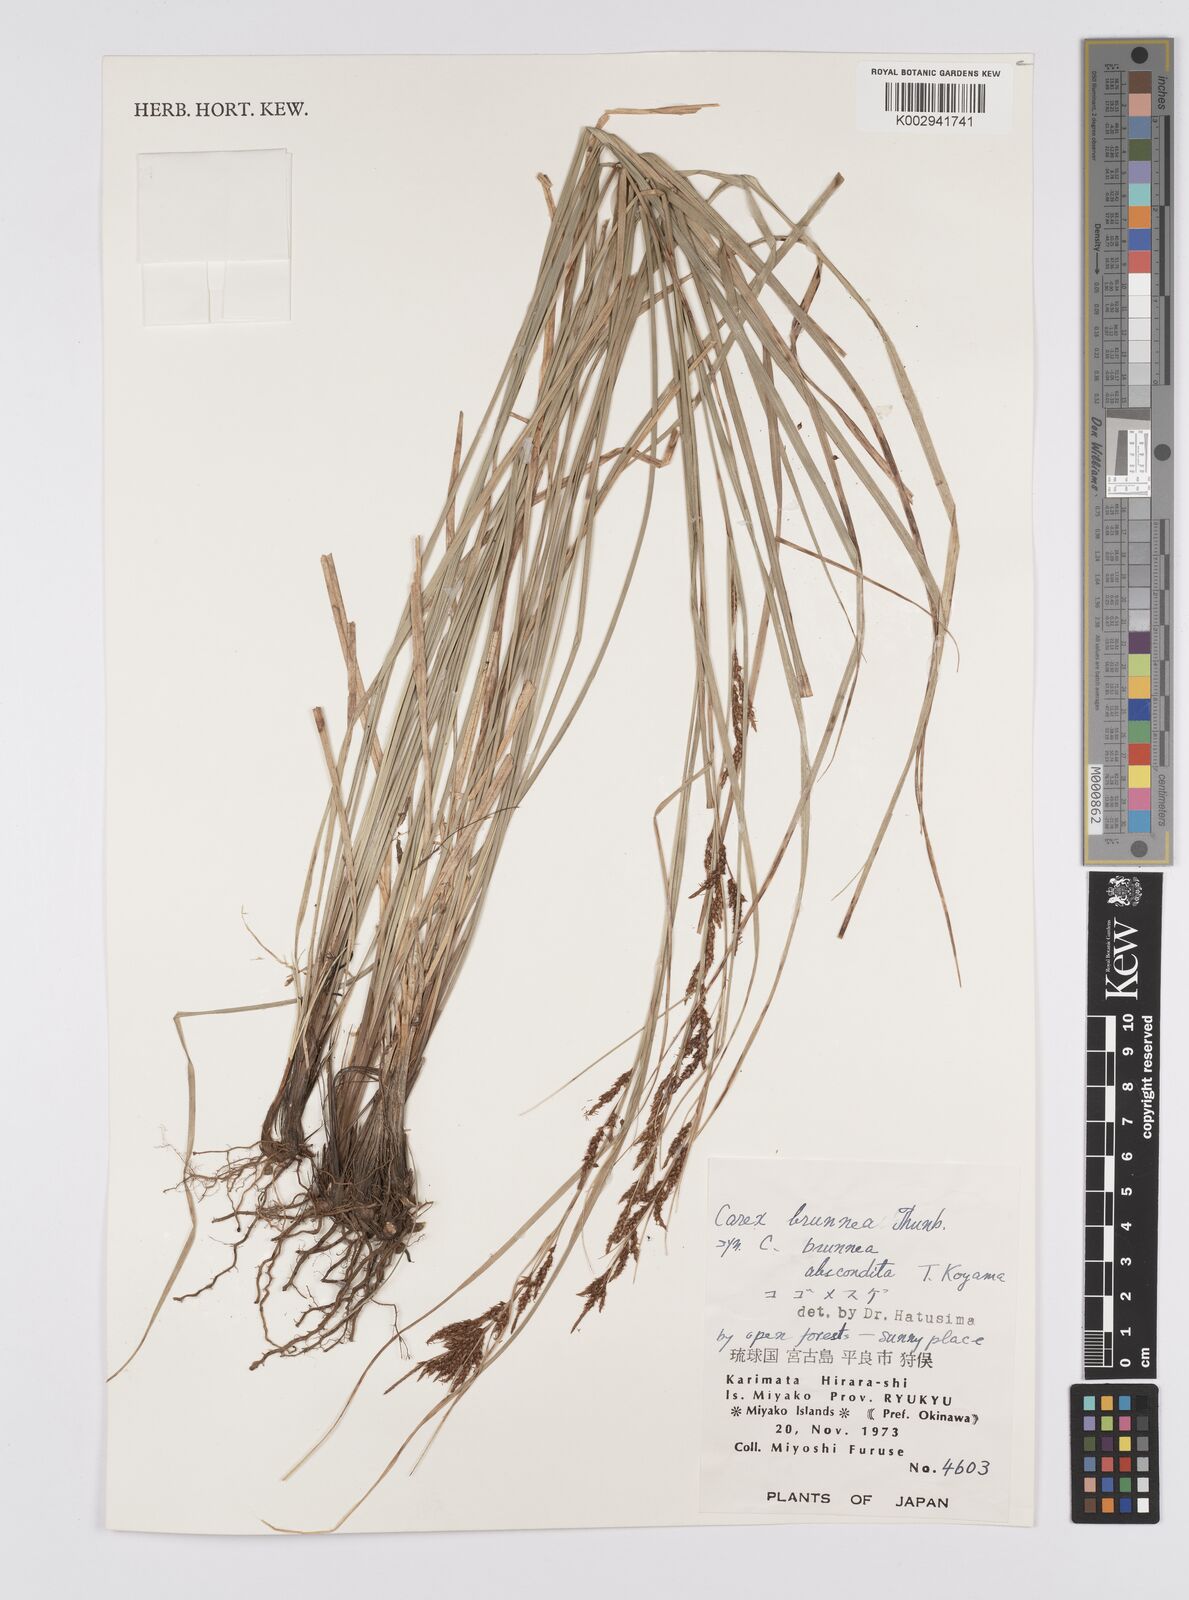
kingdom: Plantae
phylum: Tracheophyta
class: Liliopsida
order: Poales
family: Cyperaceae
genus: Carex
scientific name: Carex brunnea
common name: Greater brown sedge
